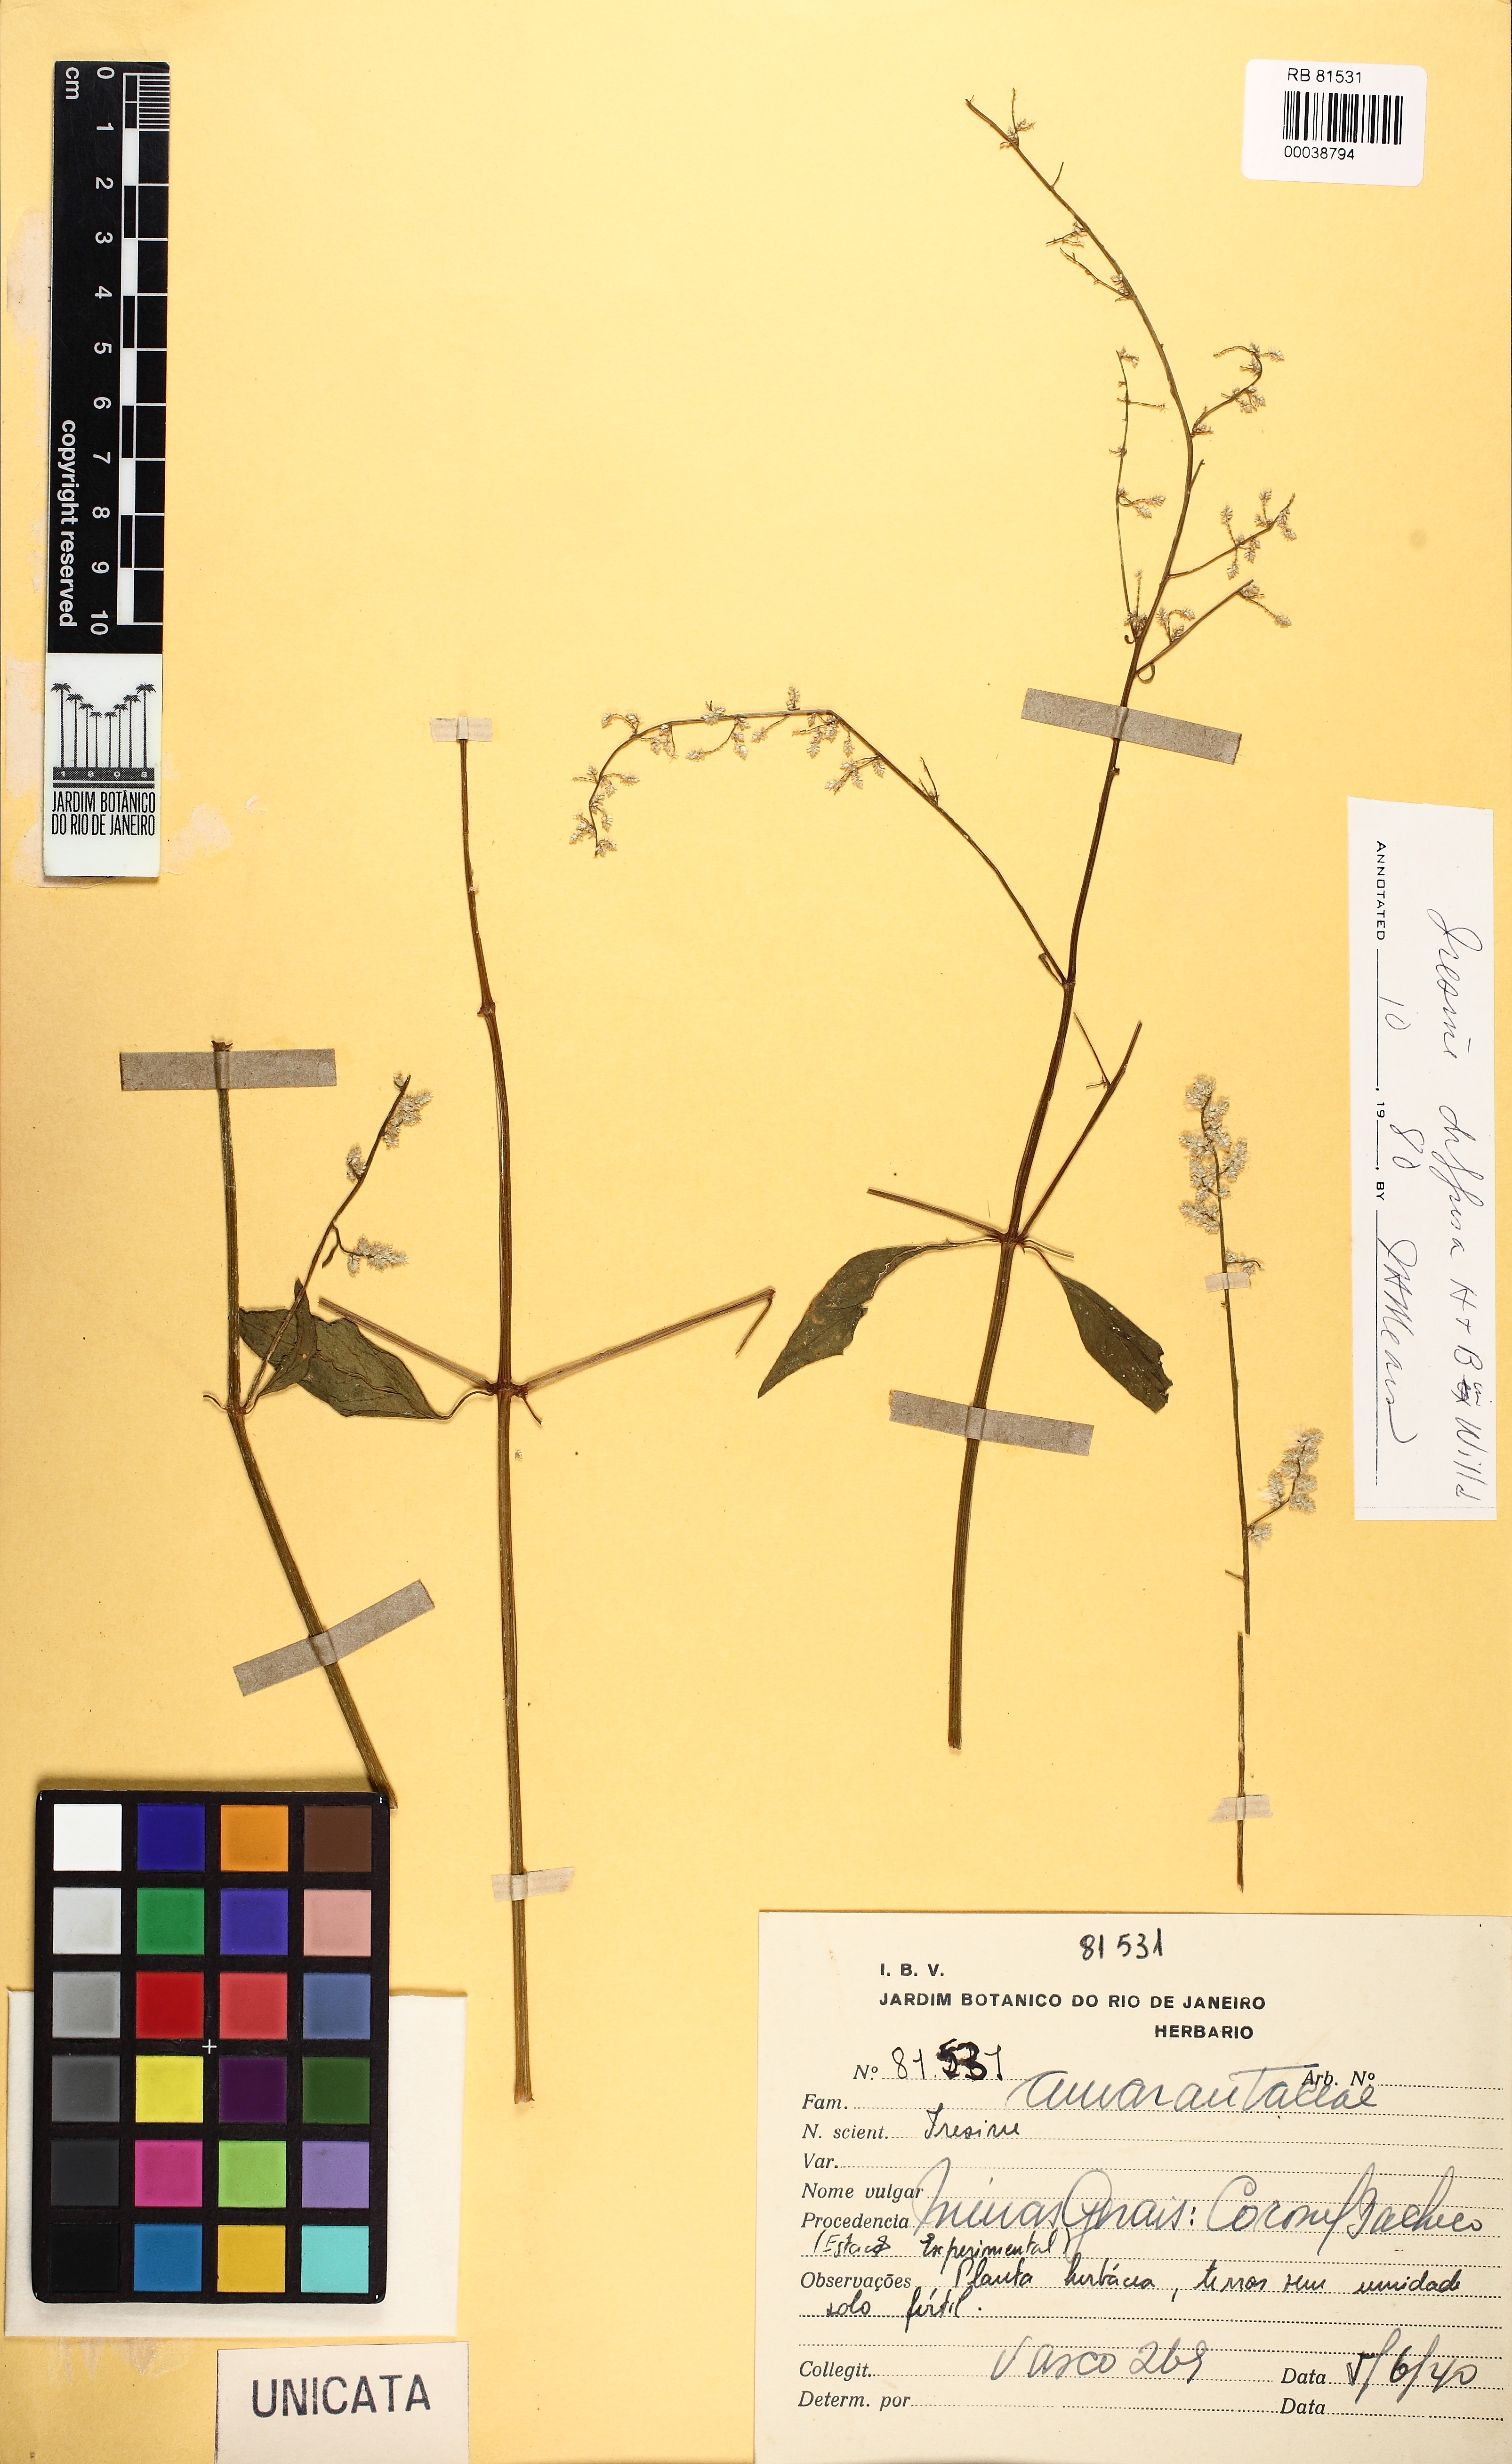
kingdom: Plantae
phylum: Tracheophyta
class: Magnoliopsida
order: Caryophyllales
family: Amaranthaceae
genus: Iresine
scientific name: Iresine diffusa
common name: Juba's-bush
